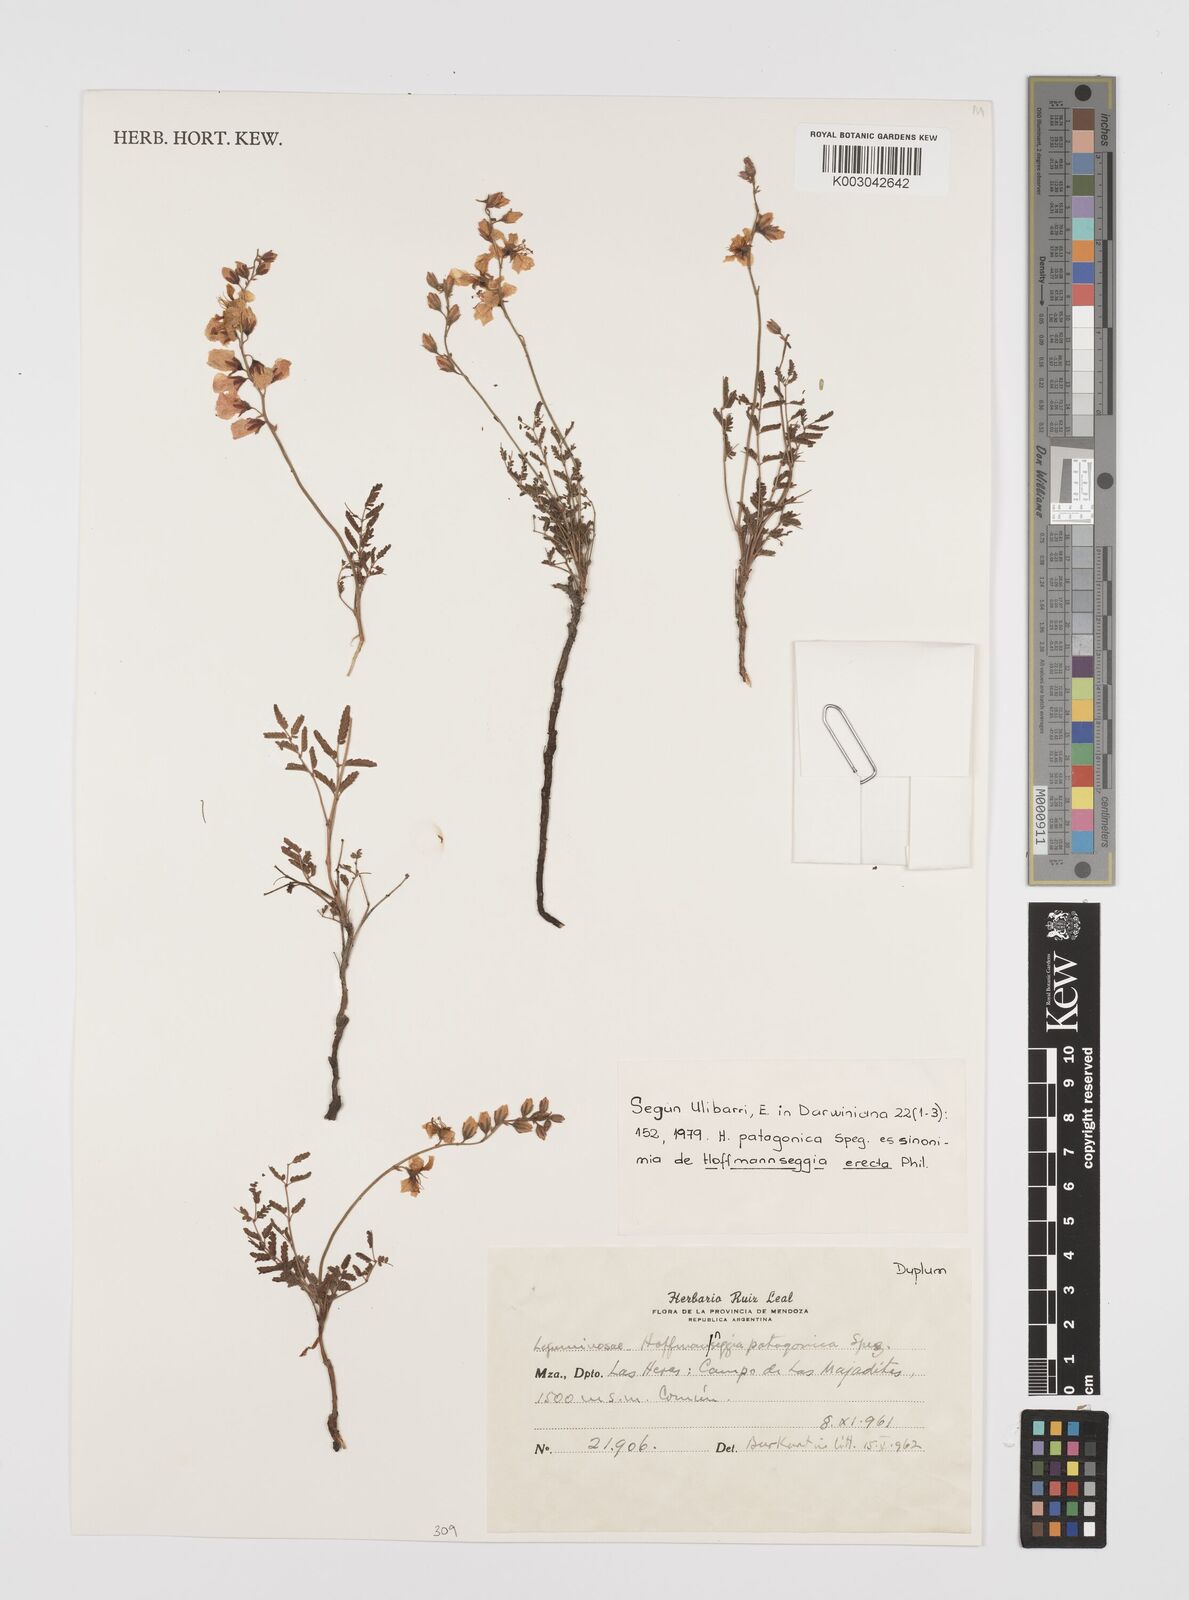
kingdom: Plantae
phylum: Tracheophyta
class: Magnoliopsida
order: Fabales
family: Fabaceae
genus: Hoffmannseggia
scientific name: Hoffmannseggia erecta
